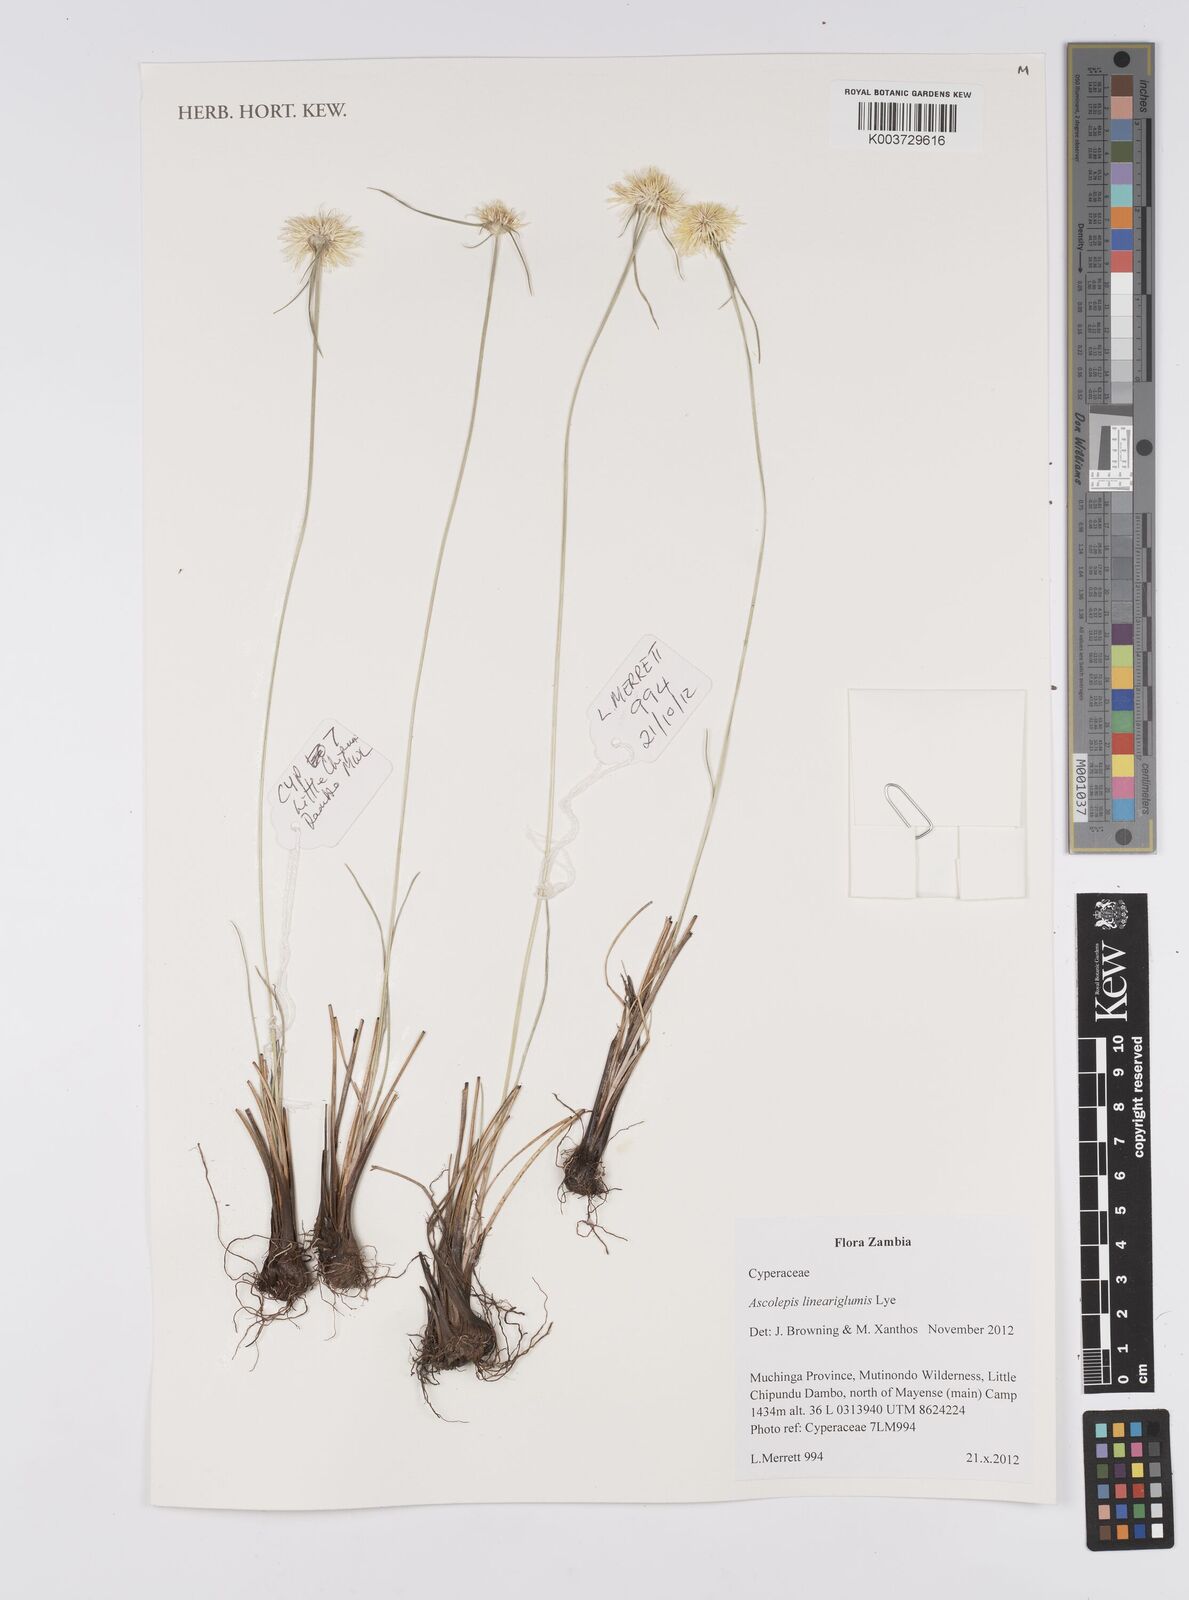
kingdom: Plantae
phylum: Tracheophyta
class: Liliopsida
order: Poales
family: Cyperaceae
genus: Cyperus
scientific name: Cyperus
